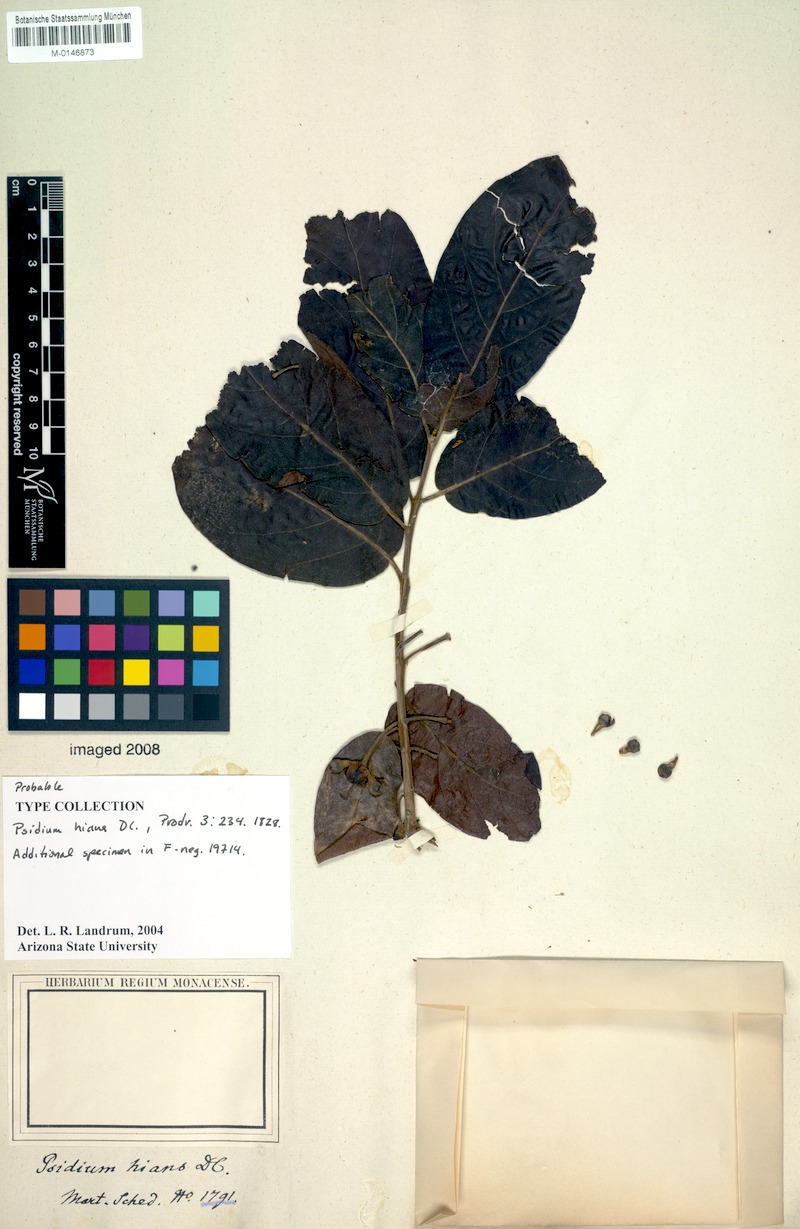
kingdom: Plantae
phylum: Tracheophyta
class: Magnoliopsida
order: Myrtales
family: Myrtaceae
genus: Campomanesia
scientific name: Campomanesia pubescens
